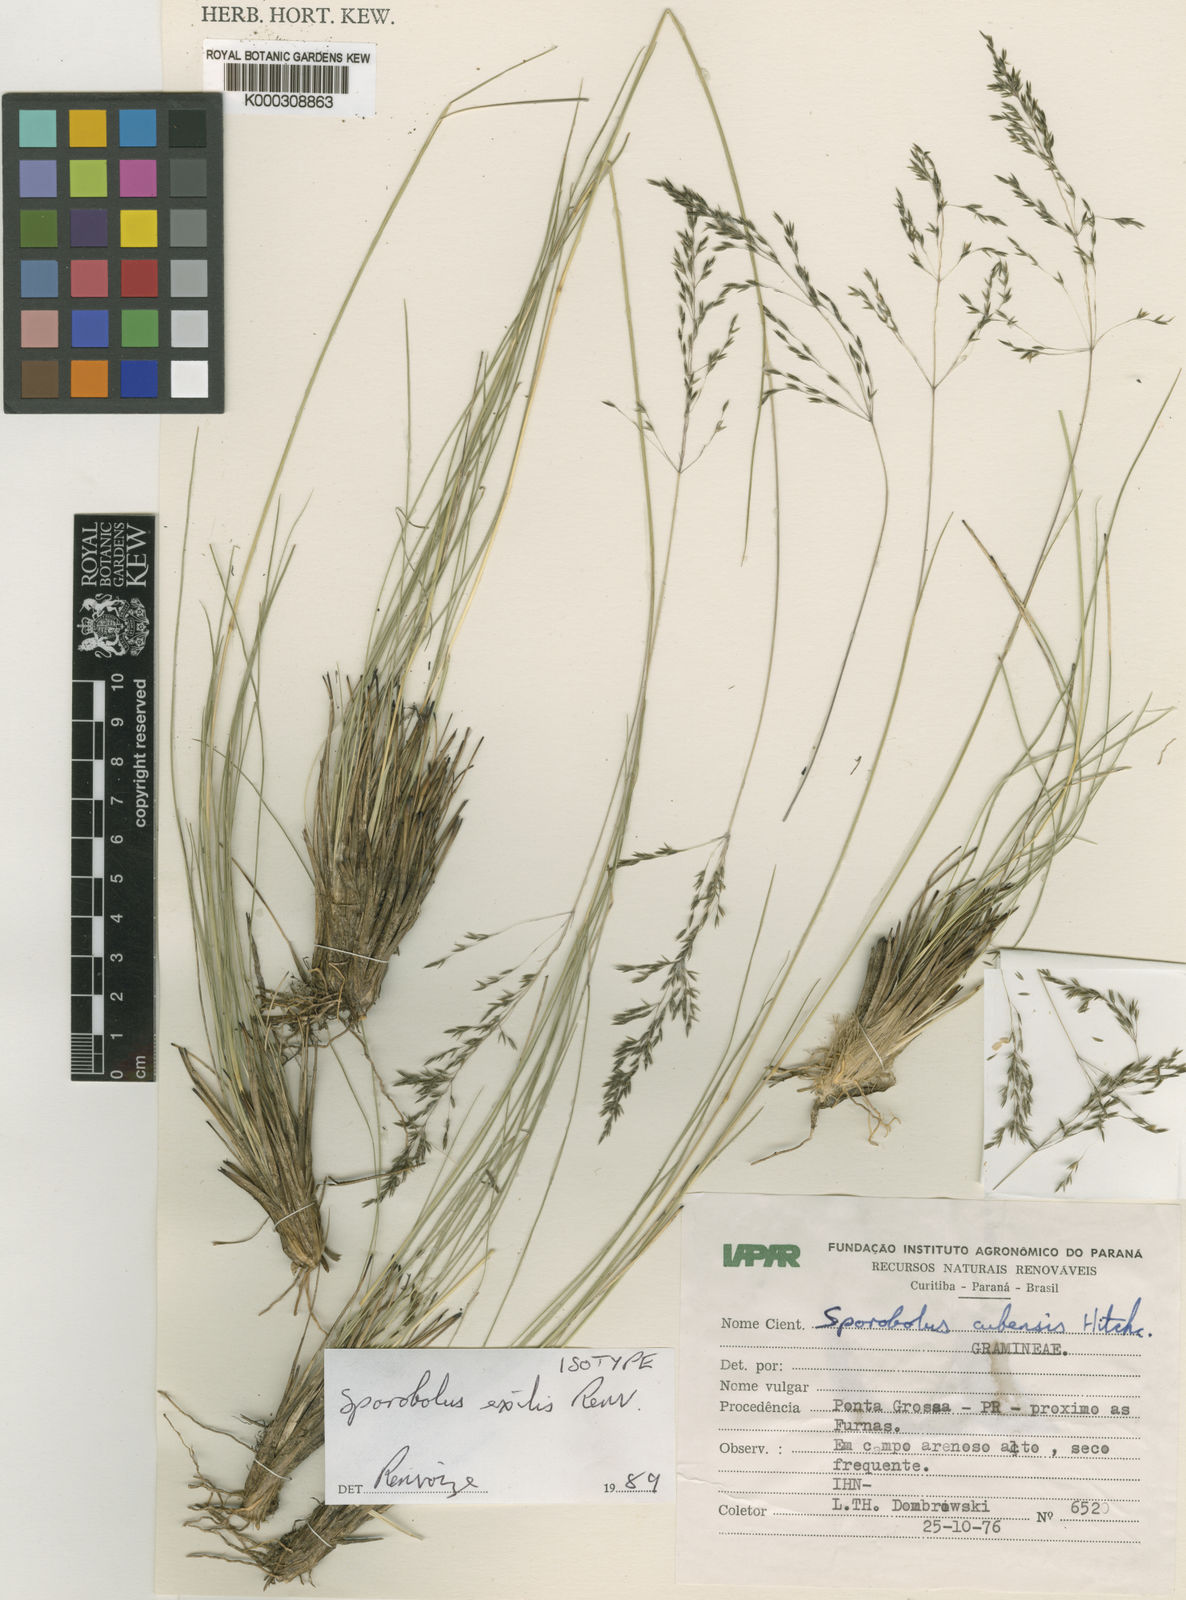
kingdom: Plantae
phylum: Tracheophyta
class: Liliopsida
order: Poales
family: Poaceae
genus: Sporobolus
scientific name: Sporobolus linearifolius
